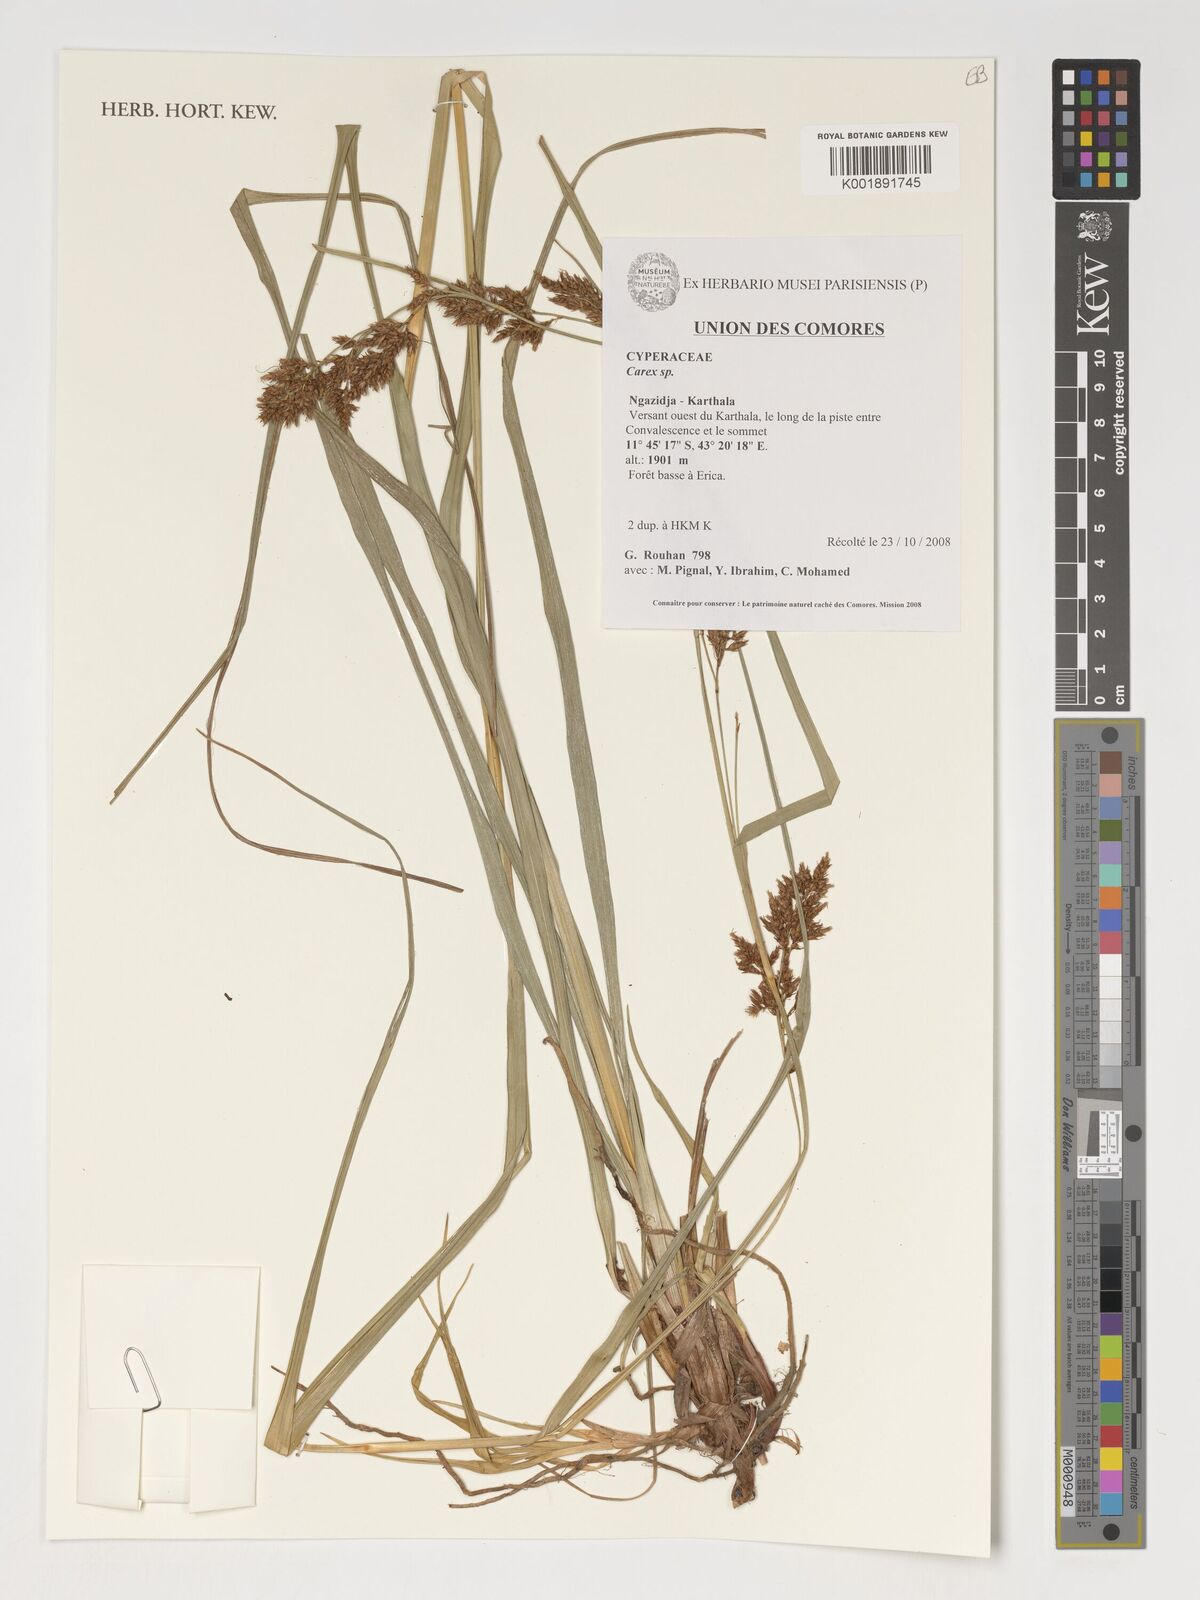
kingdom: Plantae
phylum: Tracheophyta
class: Liliopsida
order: Poales
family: Cyperaceae
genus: Carex
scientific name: Carex
